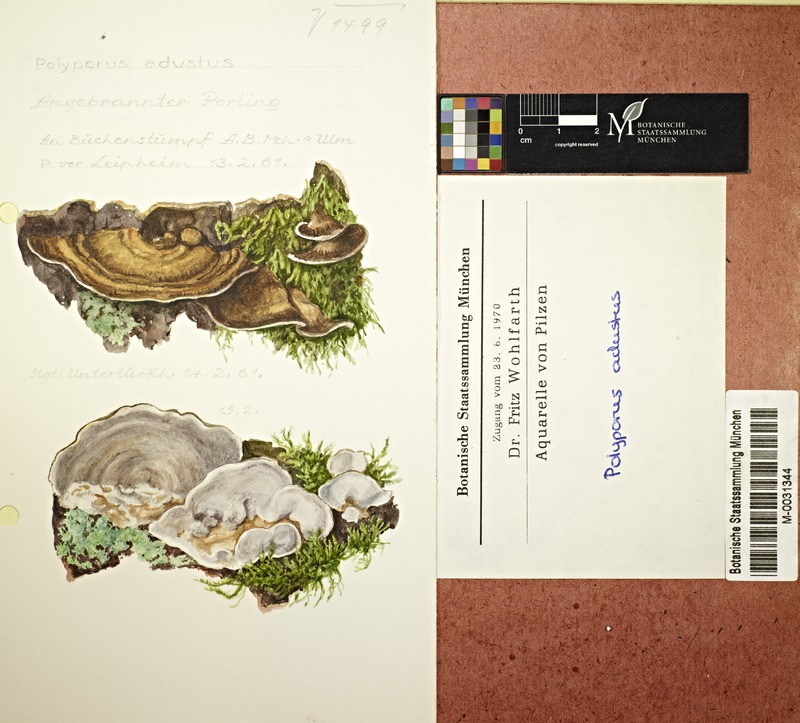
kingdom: Fungi
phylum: Basidiomycota
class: Agaricomycetes
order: Polyporales
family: Phanerochaetaceae
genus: Bjerkandera
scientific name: Bjerkandera adusta
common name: Smoky bracket
